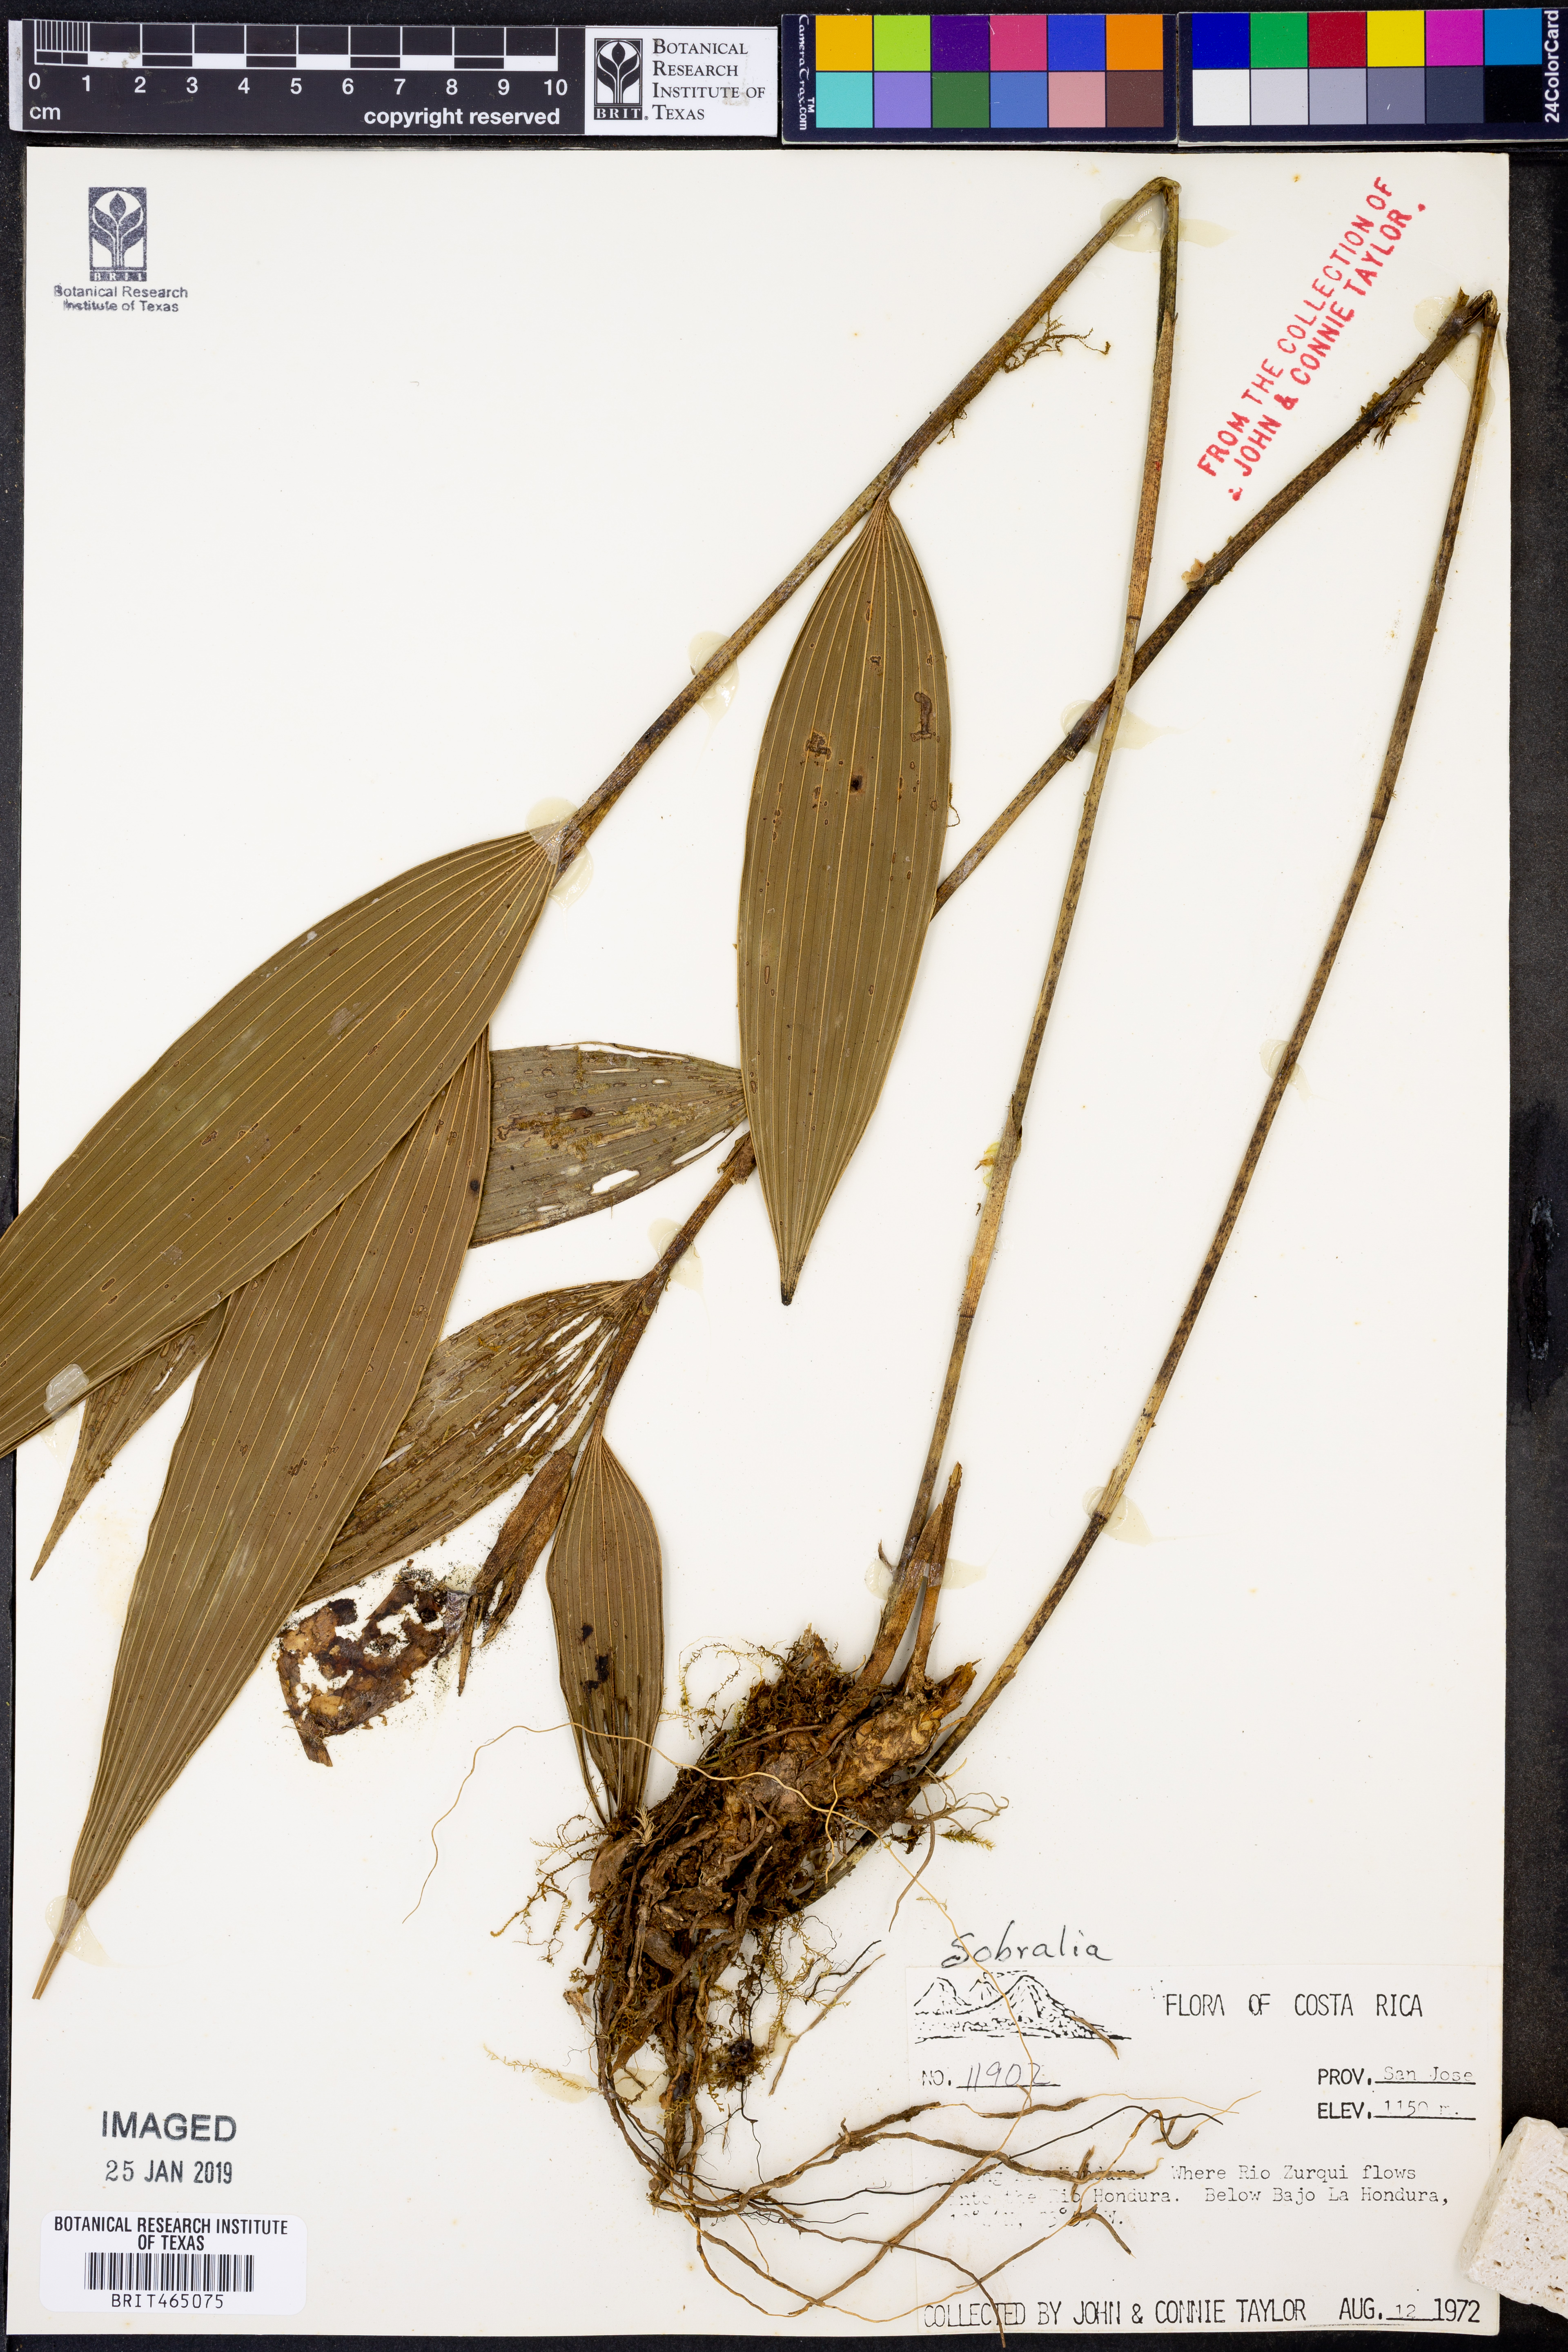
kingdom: Plantae
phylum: Tracheophyta
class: Liliopsida
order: Asparagales
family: Orchidaceae
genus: Sobralia
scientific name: Sobralia
